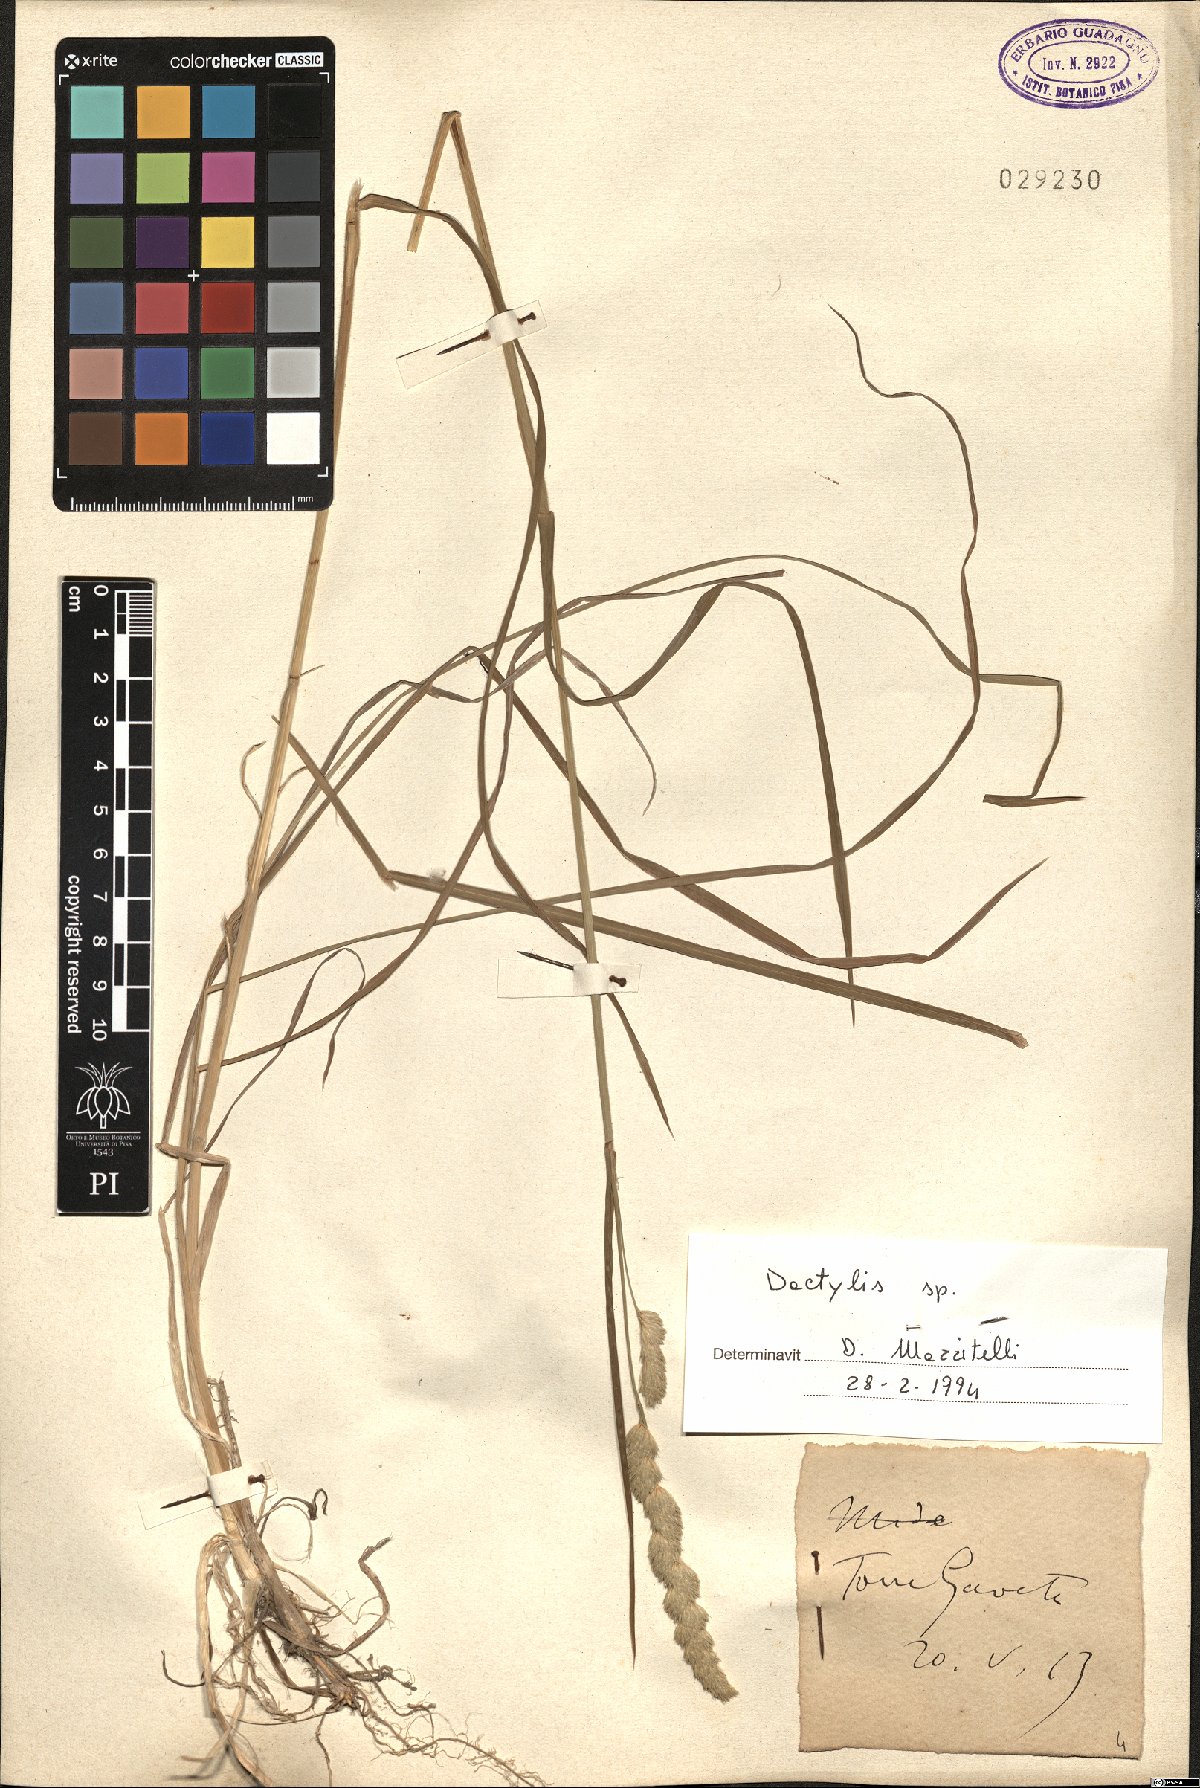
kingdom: Plantae
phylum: Tracheophyta
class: Liliopsida
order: Poales
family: Poaceae
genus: Dactylis
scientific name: Dactylis
